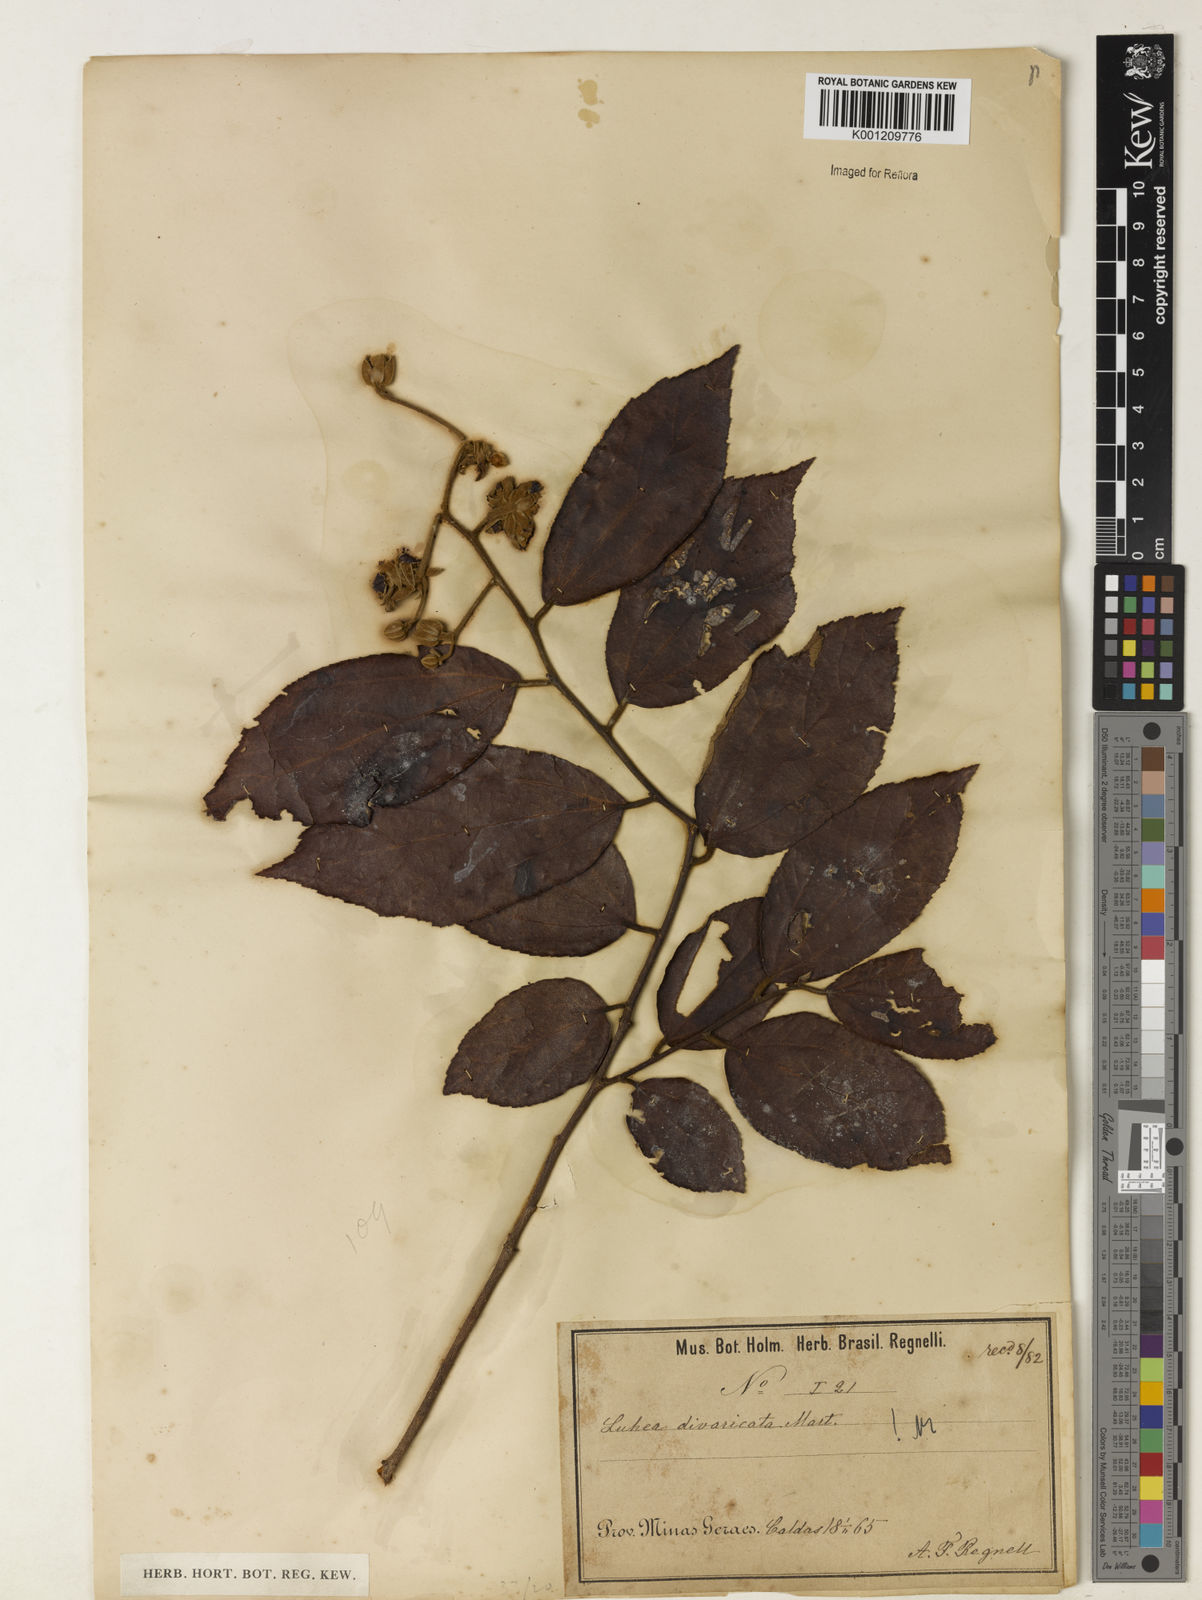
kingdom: Plantae
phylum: Tracheophyta
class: Magnoliopsida
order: Malvales
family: Malvaceae
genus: Luehea
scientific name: Luehea divaricata
